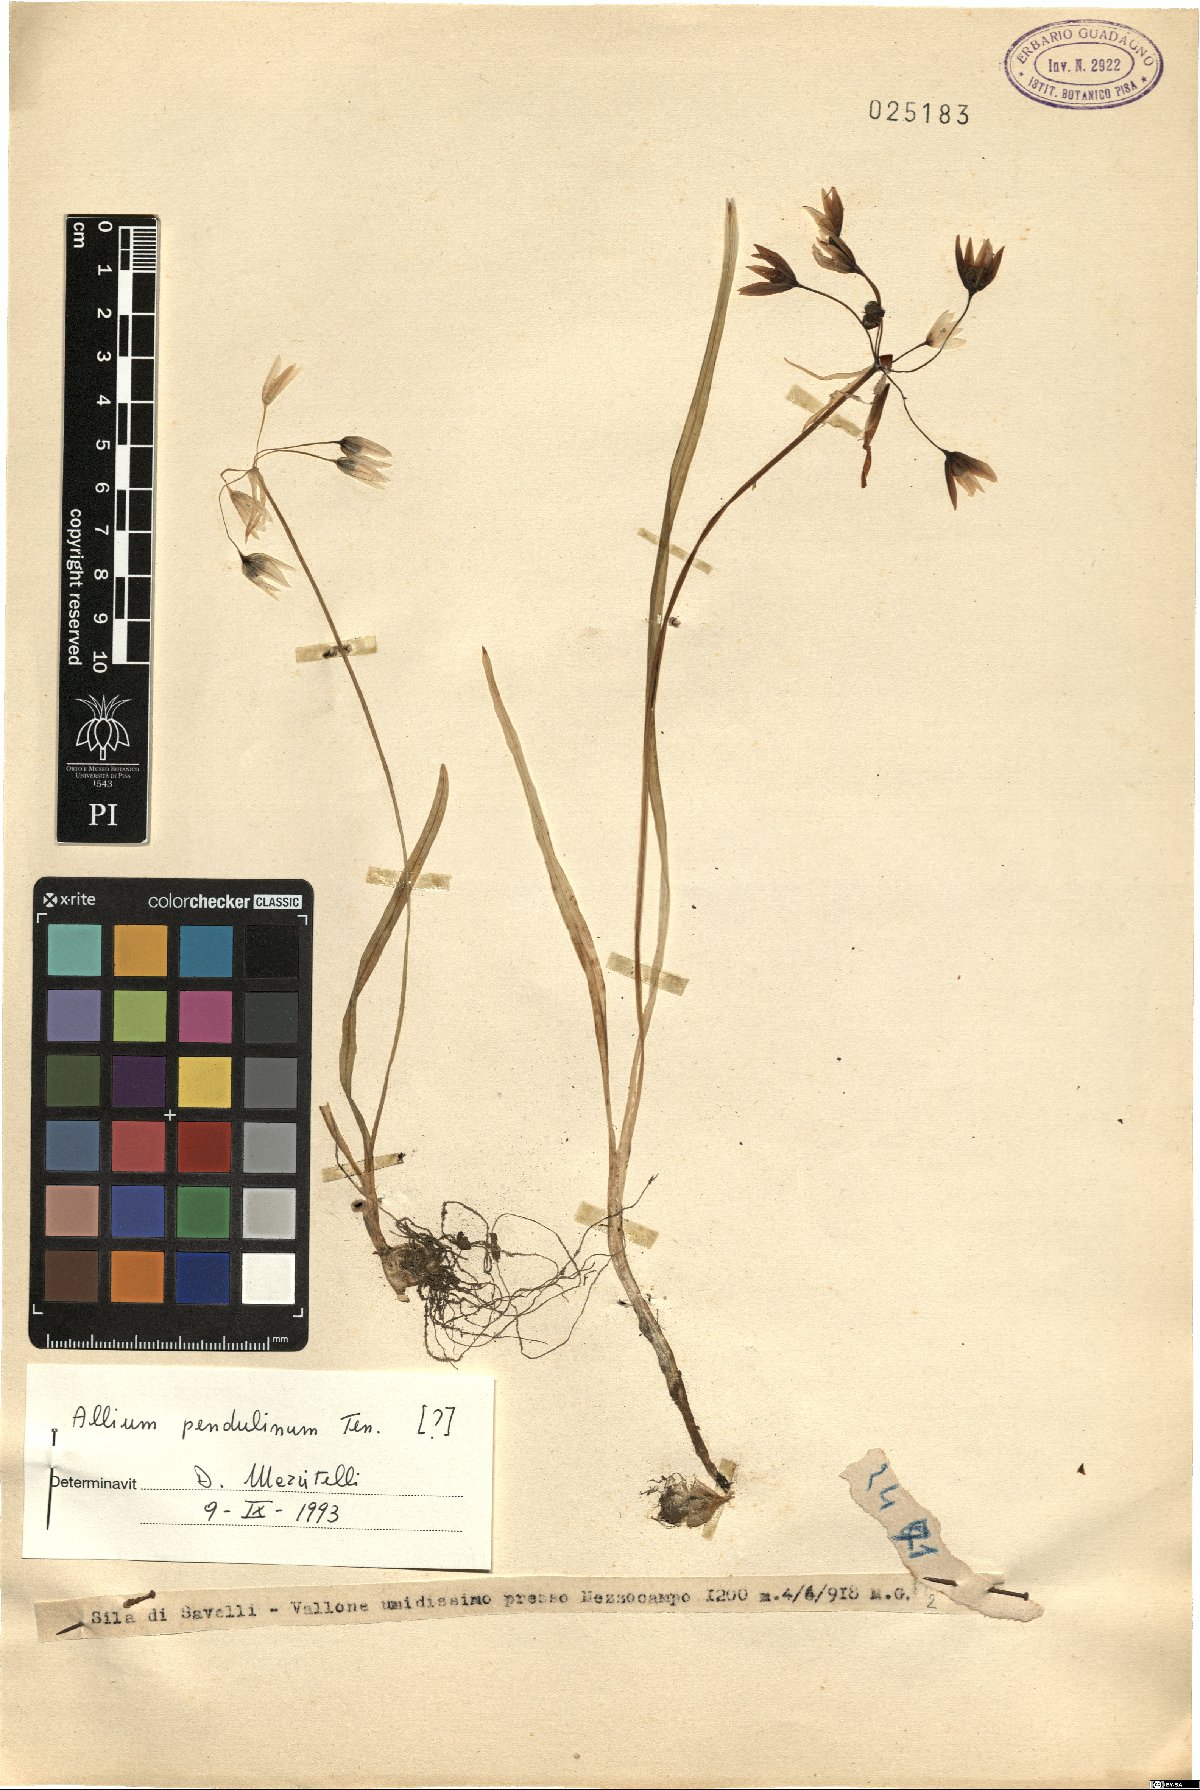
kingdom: Plantae
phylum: Tracheophyta
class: Liliopsida
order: Asparagales
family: Amaryllidaceae
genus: Allium
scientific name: Allium pendulinum
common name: Italian garlic
